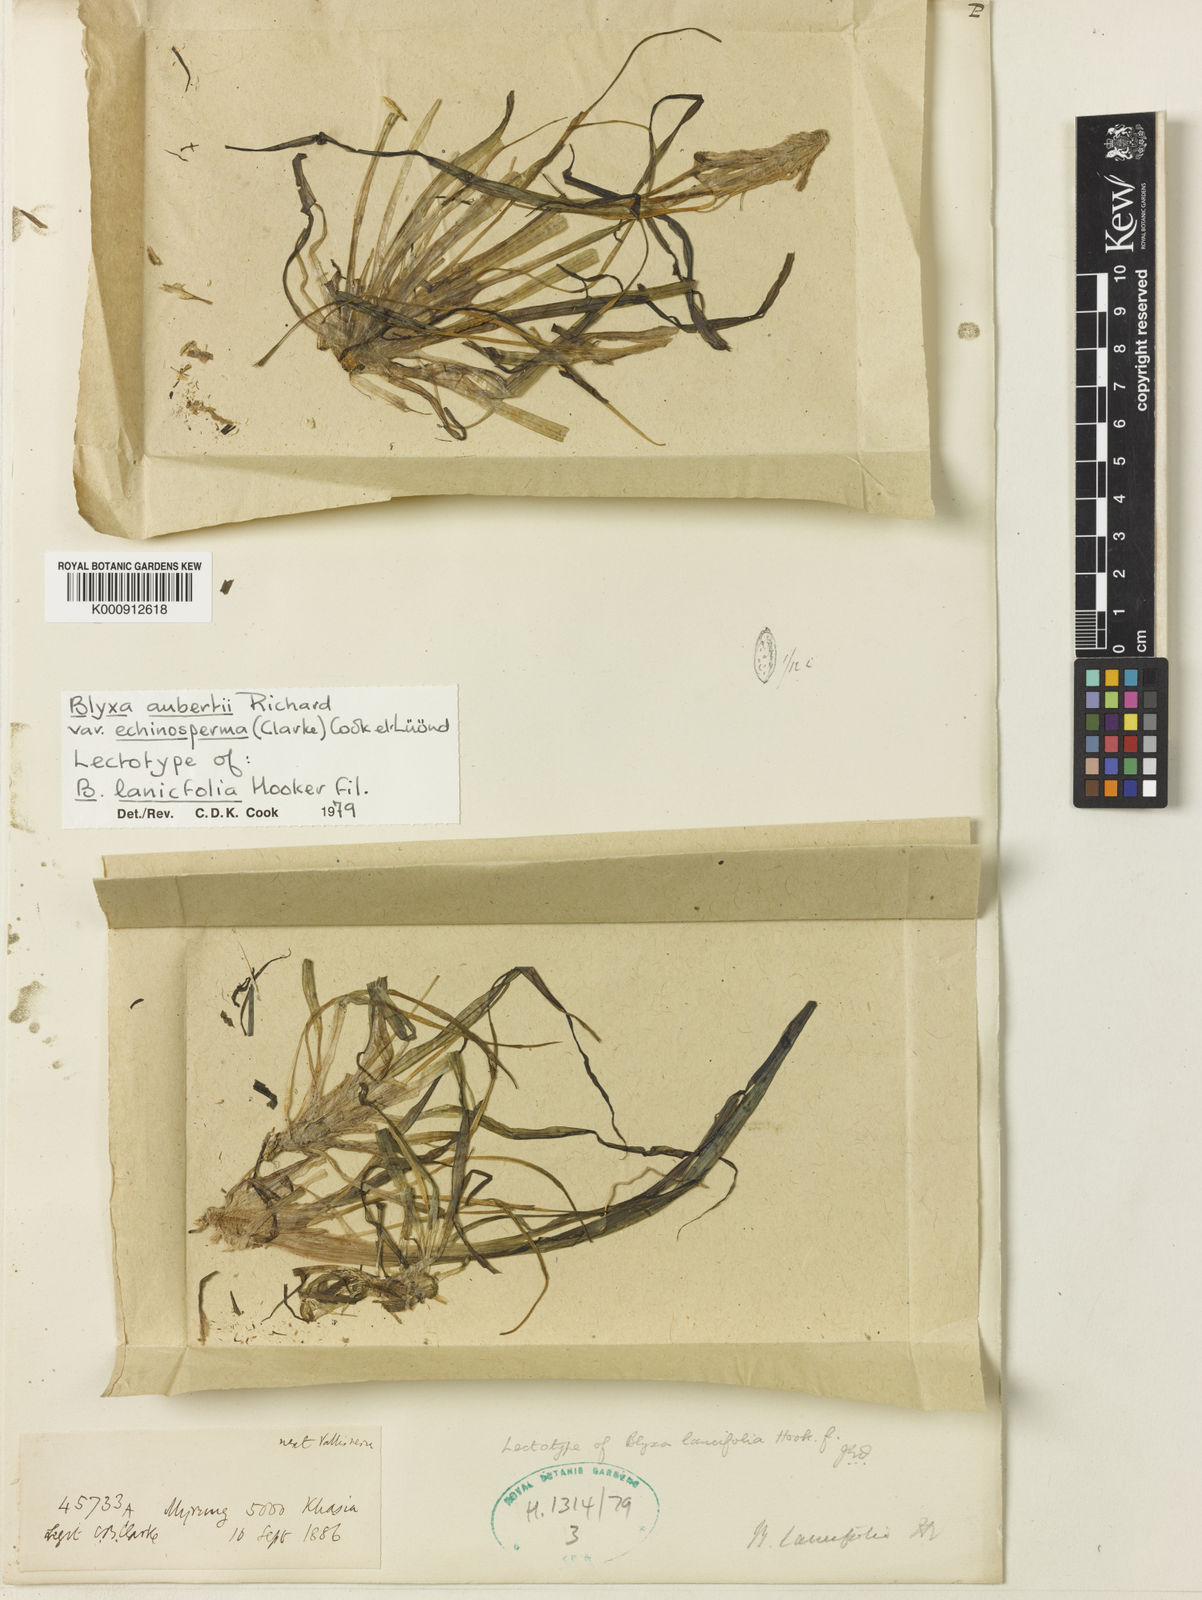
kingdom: Plantae
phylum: Tracheophyta
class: Liliopsida
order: Alismatales
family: Hydrocharitaceae
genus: Blyxa
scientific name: Blyxa echinosperma
